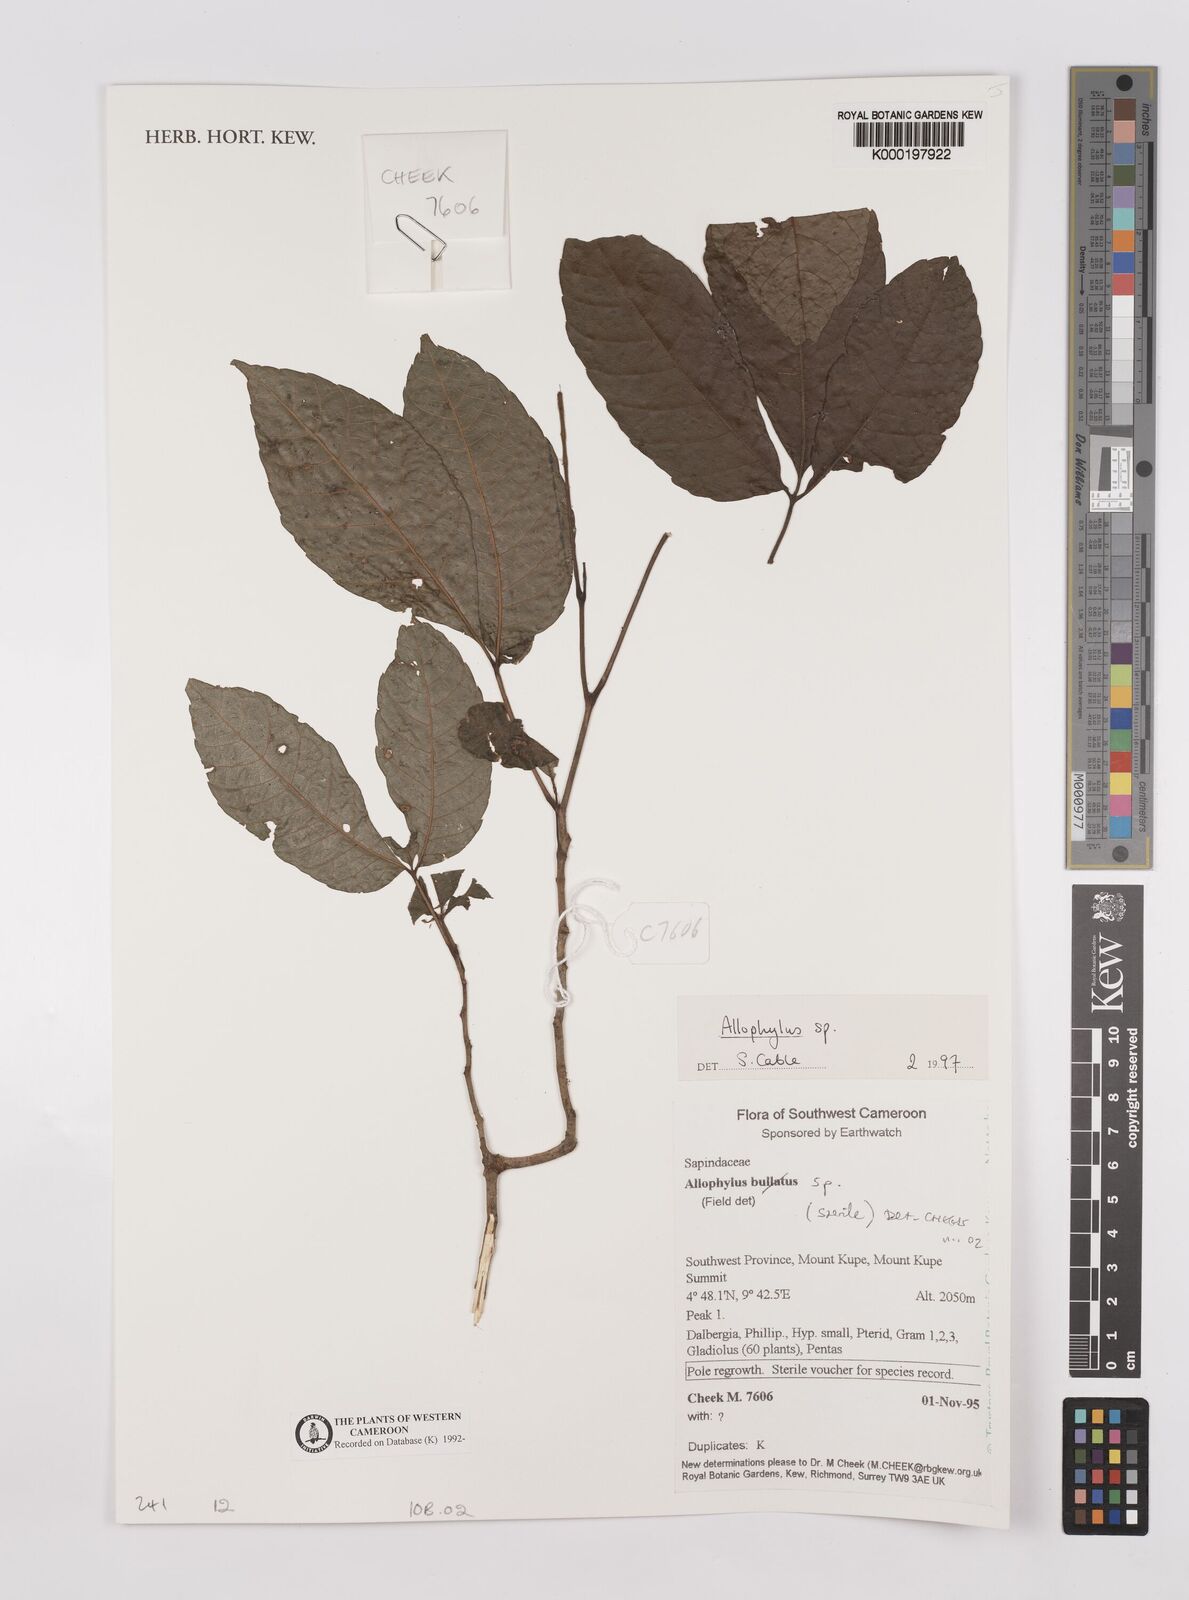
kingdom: Plantae
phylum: Tracheophyta
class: Magnoliopsida
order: Sapindales
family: Sapindaceae
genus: Allophylus
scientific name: Allophylus
